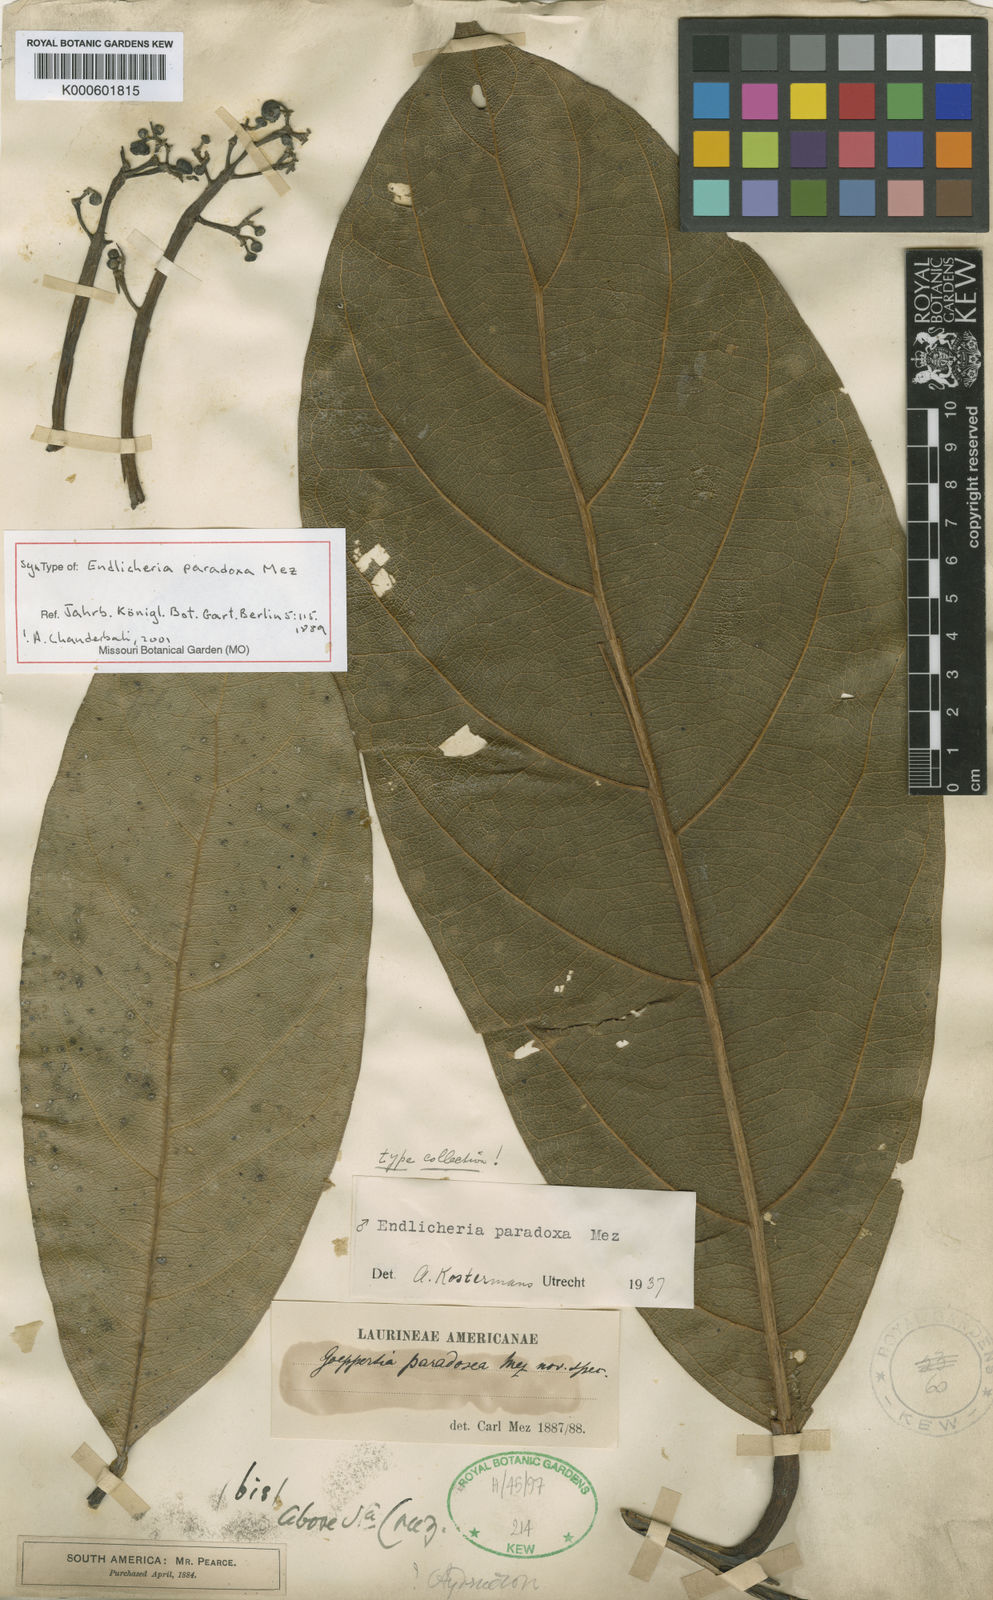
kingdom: Plantae
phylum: Tracheophyta
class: Magnoliopsida
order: Laurales
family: Lauraceae
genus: Endlicheria
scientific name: Endlicheria paradoxa
